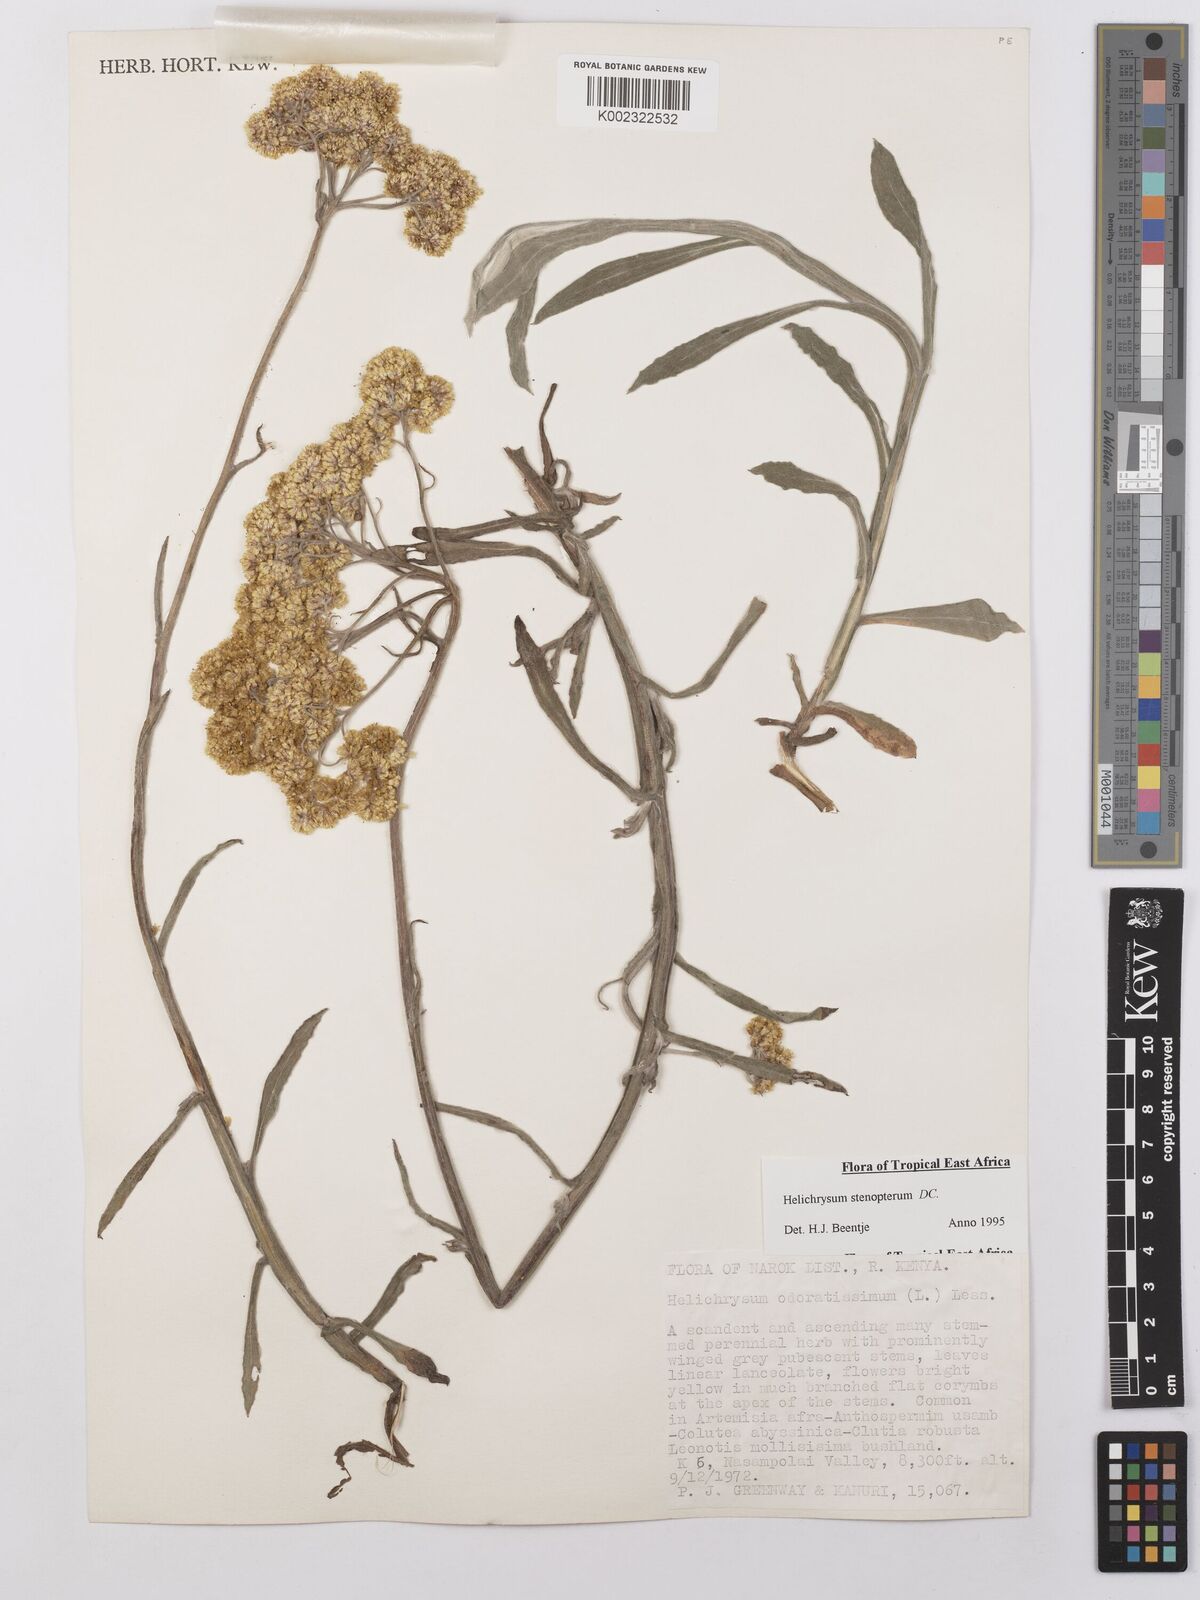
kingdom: Plantae
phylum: Tracheophyta
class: Magnoliopsida
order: Asterales
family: Asteraceae
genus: Helichrysum
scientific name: Helichrysum stenopterum
